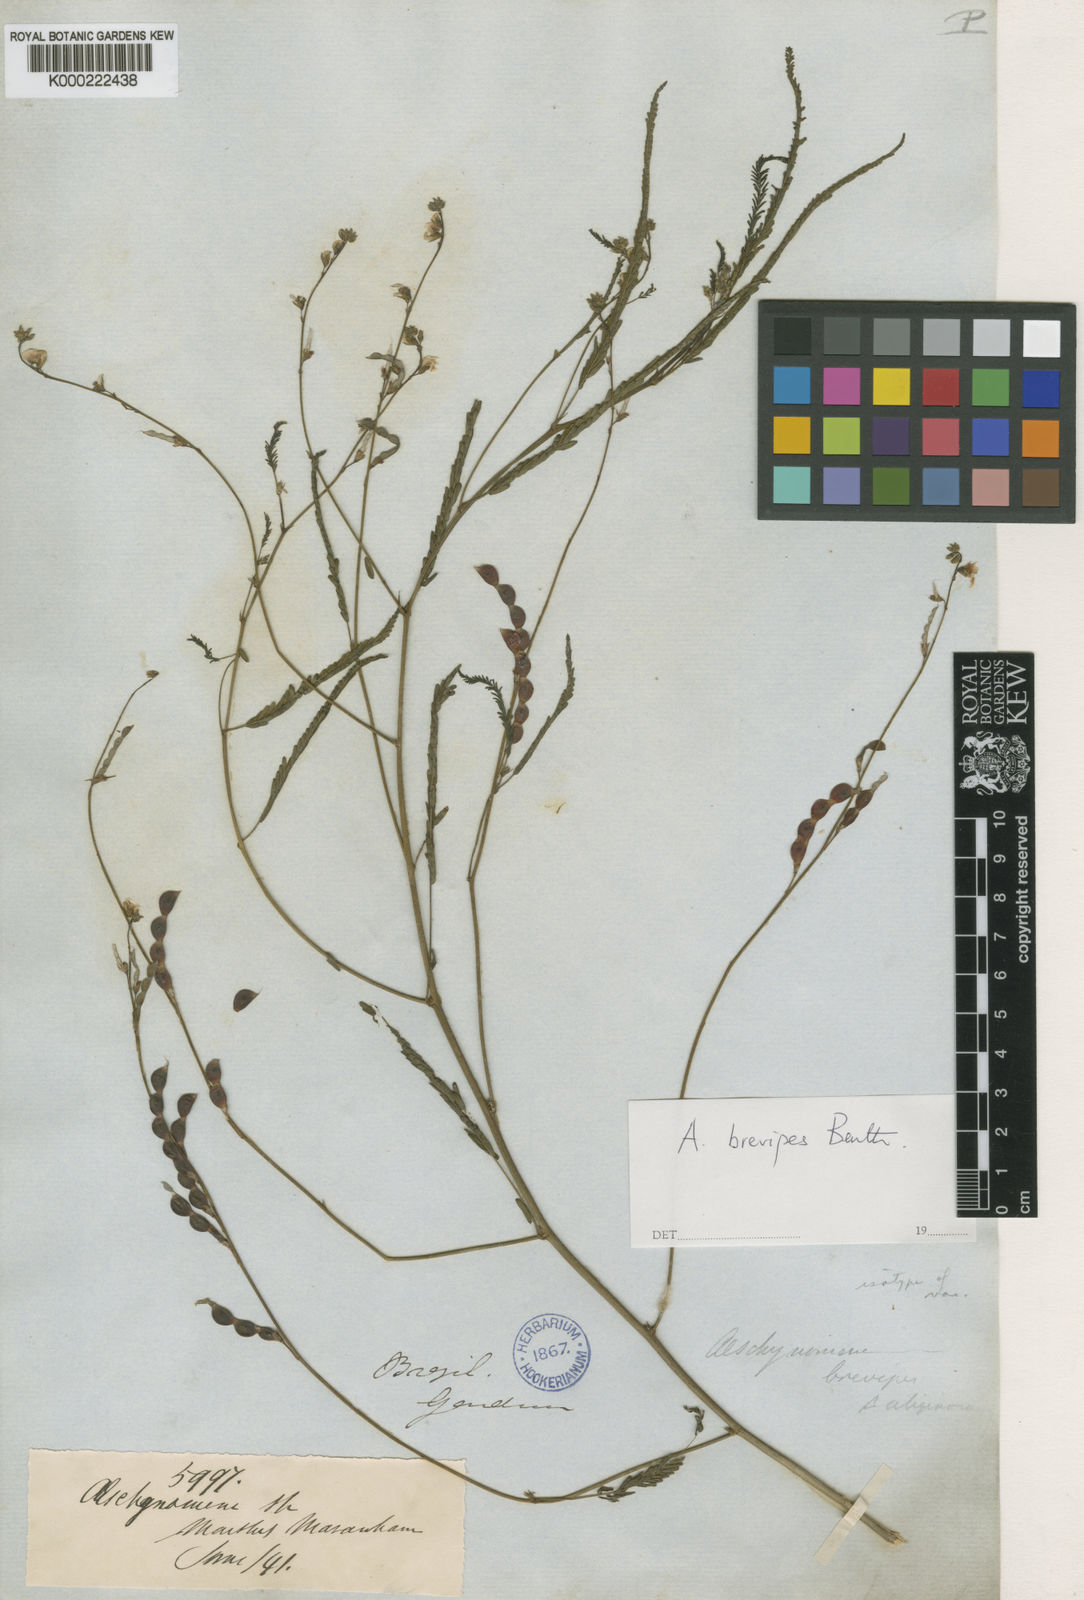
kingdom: Plantae
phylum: Tracheophyta
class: Magnoliopsida
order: Fabales
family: Fabaceae
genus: Ctenodon
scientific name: Ctenodon brevipes
